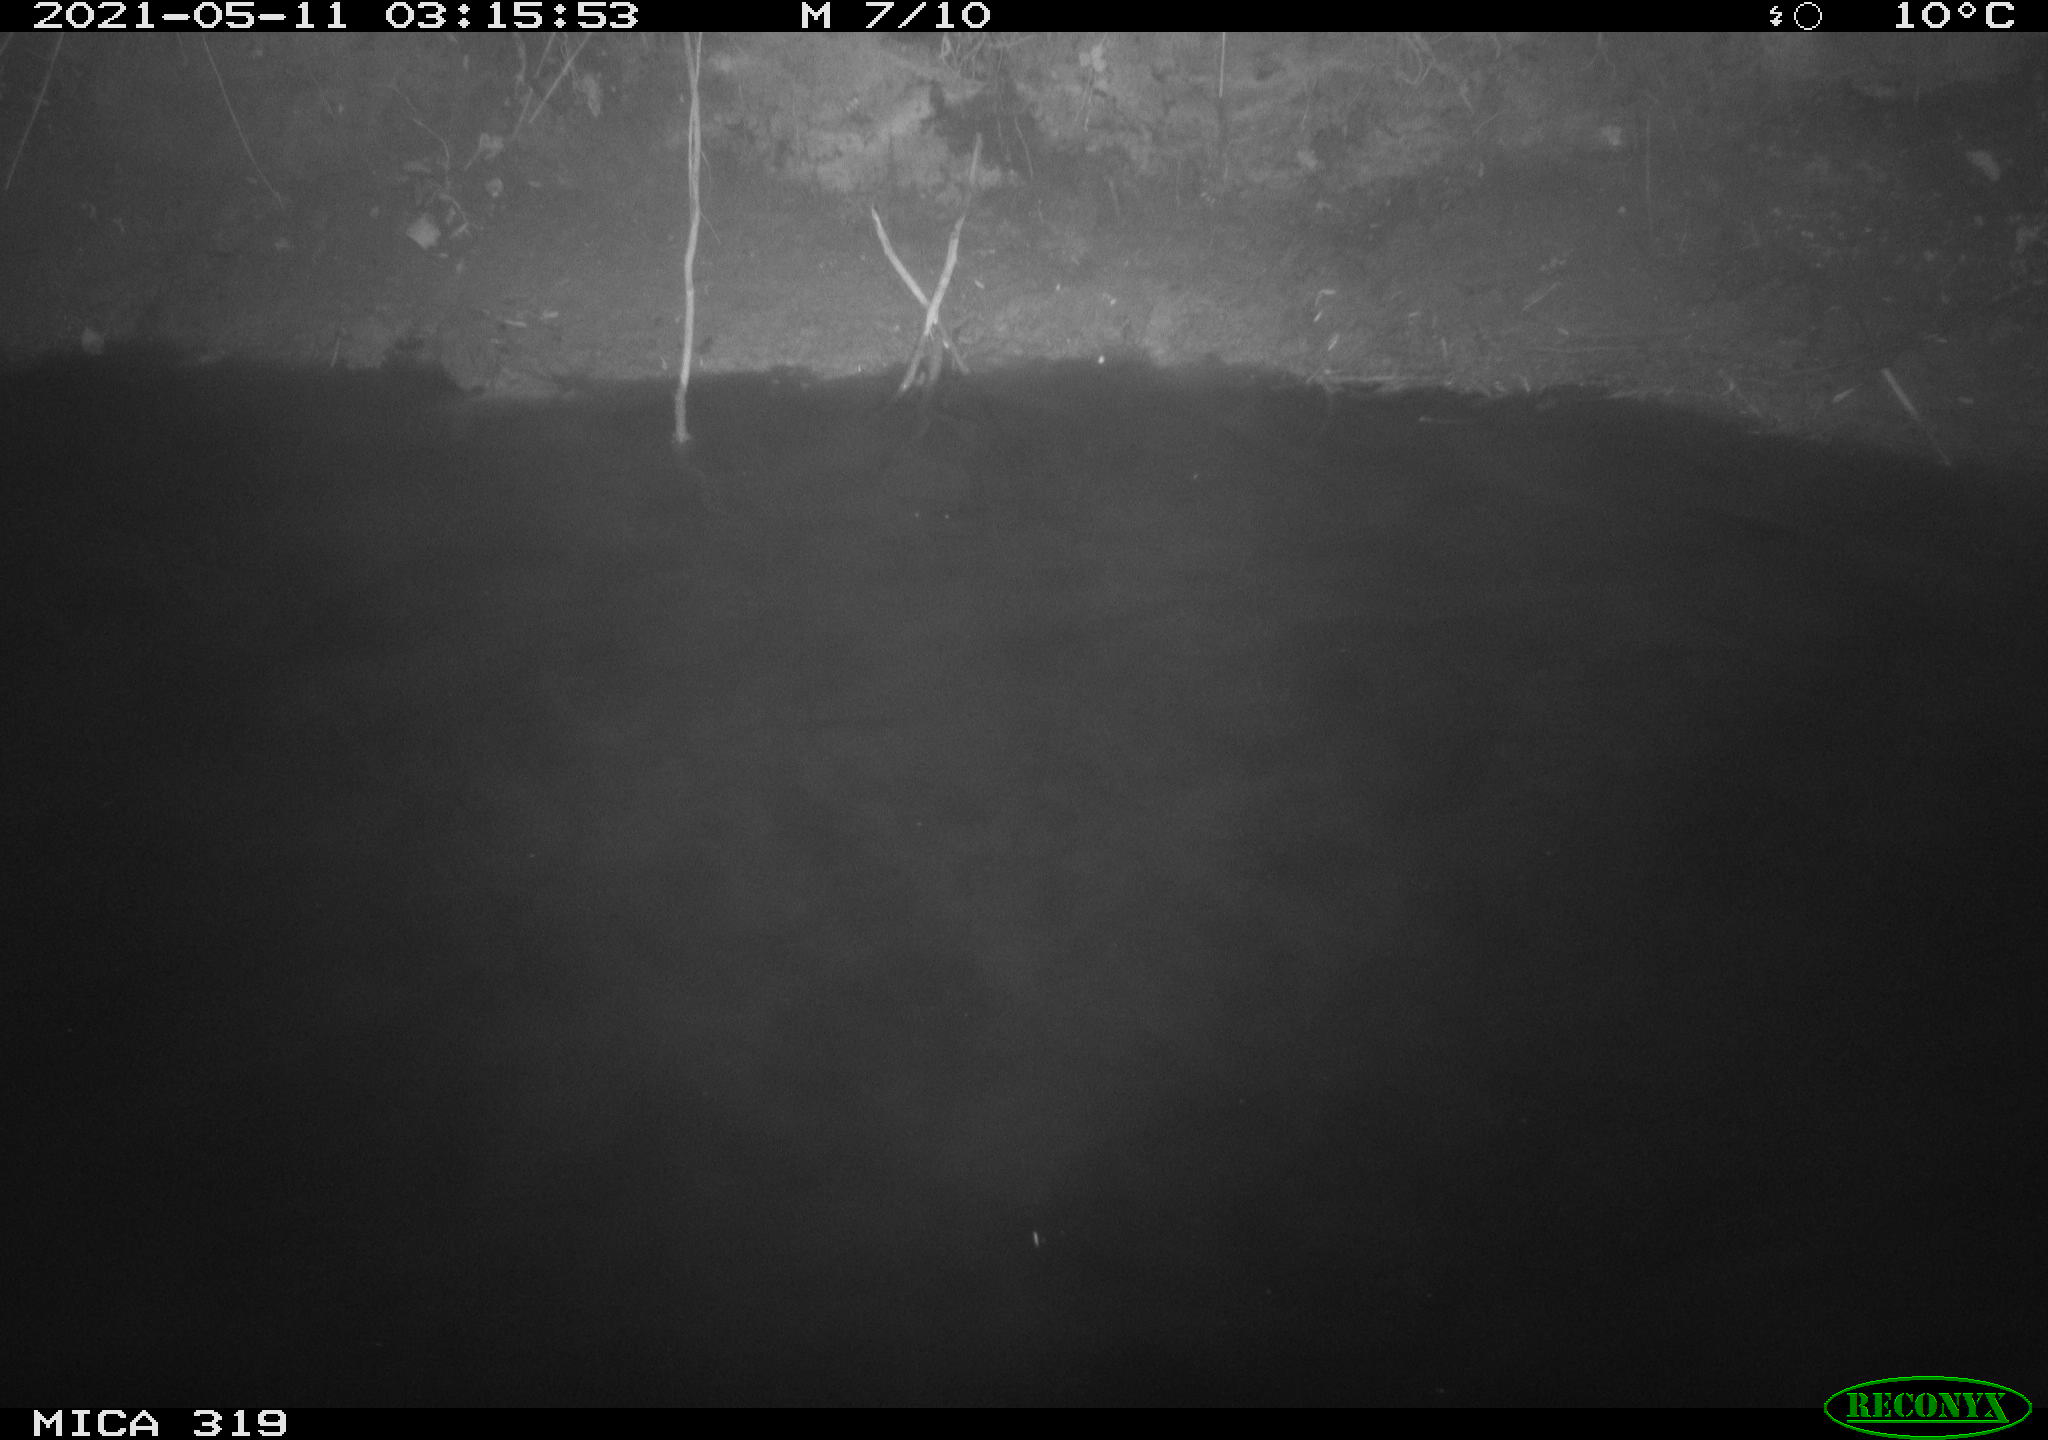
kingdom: Animalia
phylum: Chordata
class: Aves
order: Anseriformes
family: Anatidae
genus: Anas
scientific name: Anas platyrhynchos
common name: Mallard
